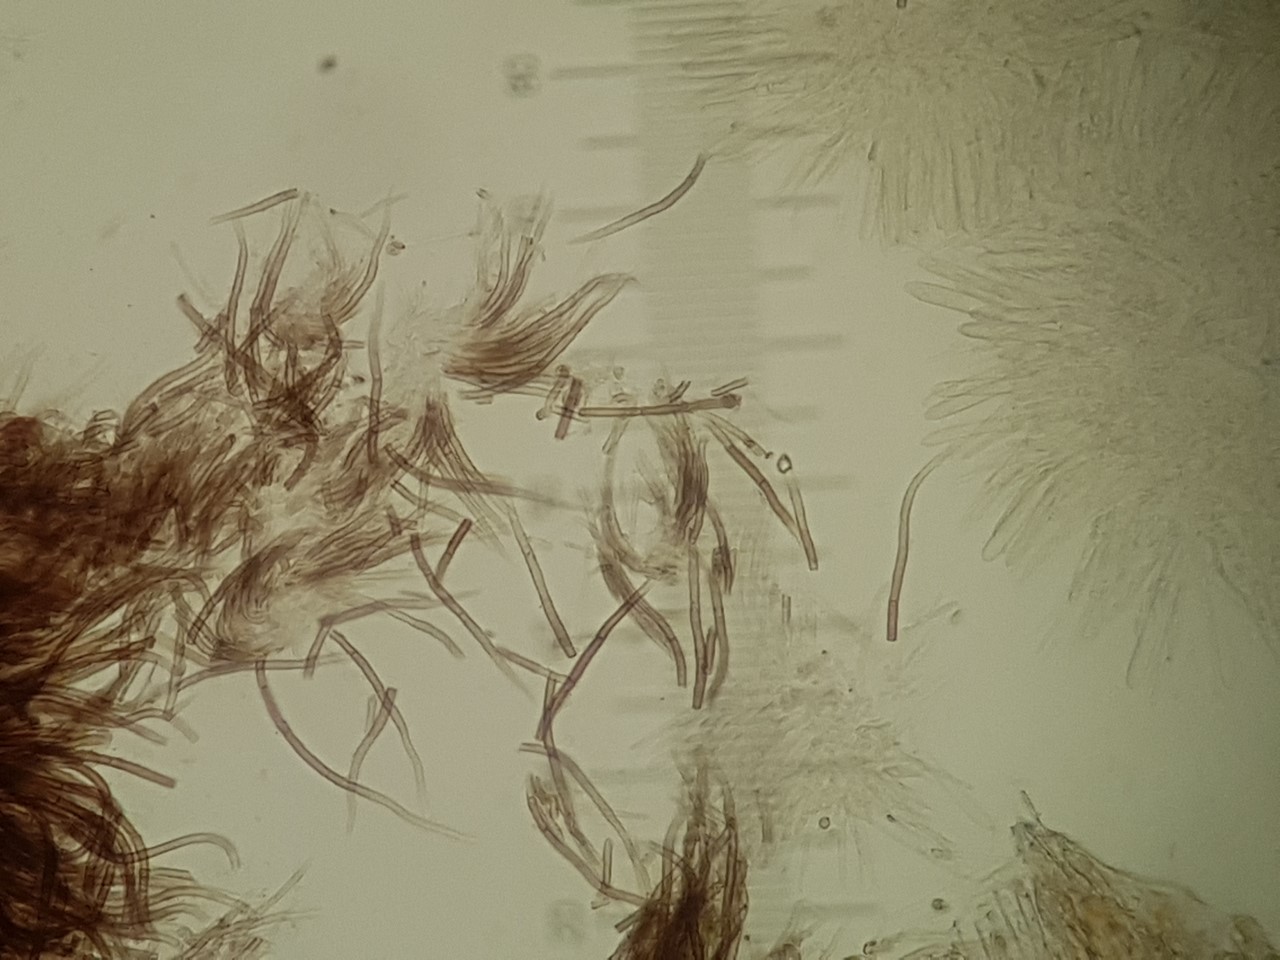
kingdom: Fungi
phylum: Ascomycota
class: Leotiomycetes
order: Helotiales
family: Solenopeziaceae
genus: Lasiobelonium
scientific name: Lasiobelonium variegatum
